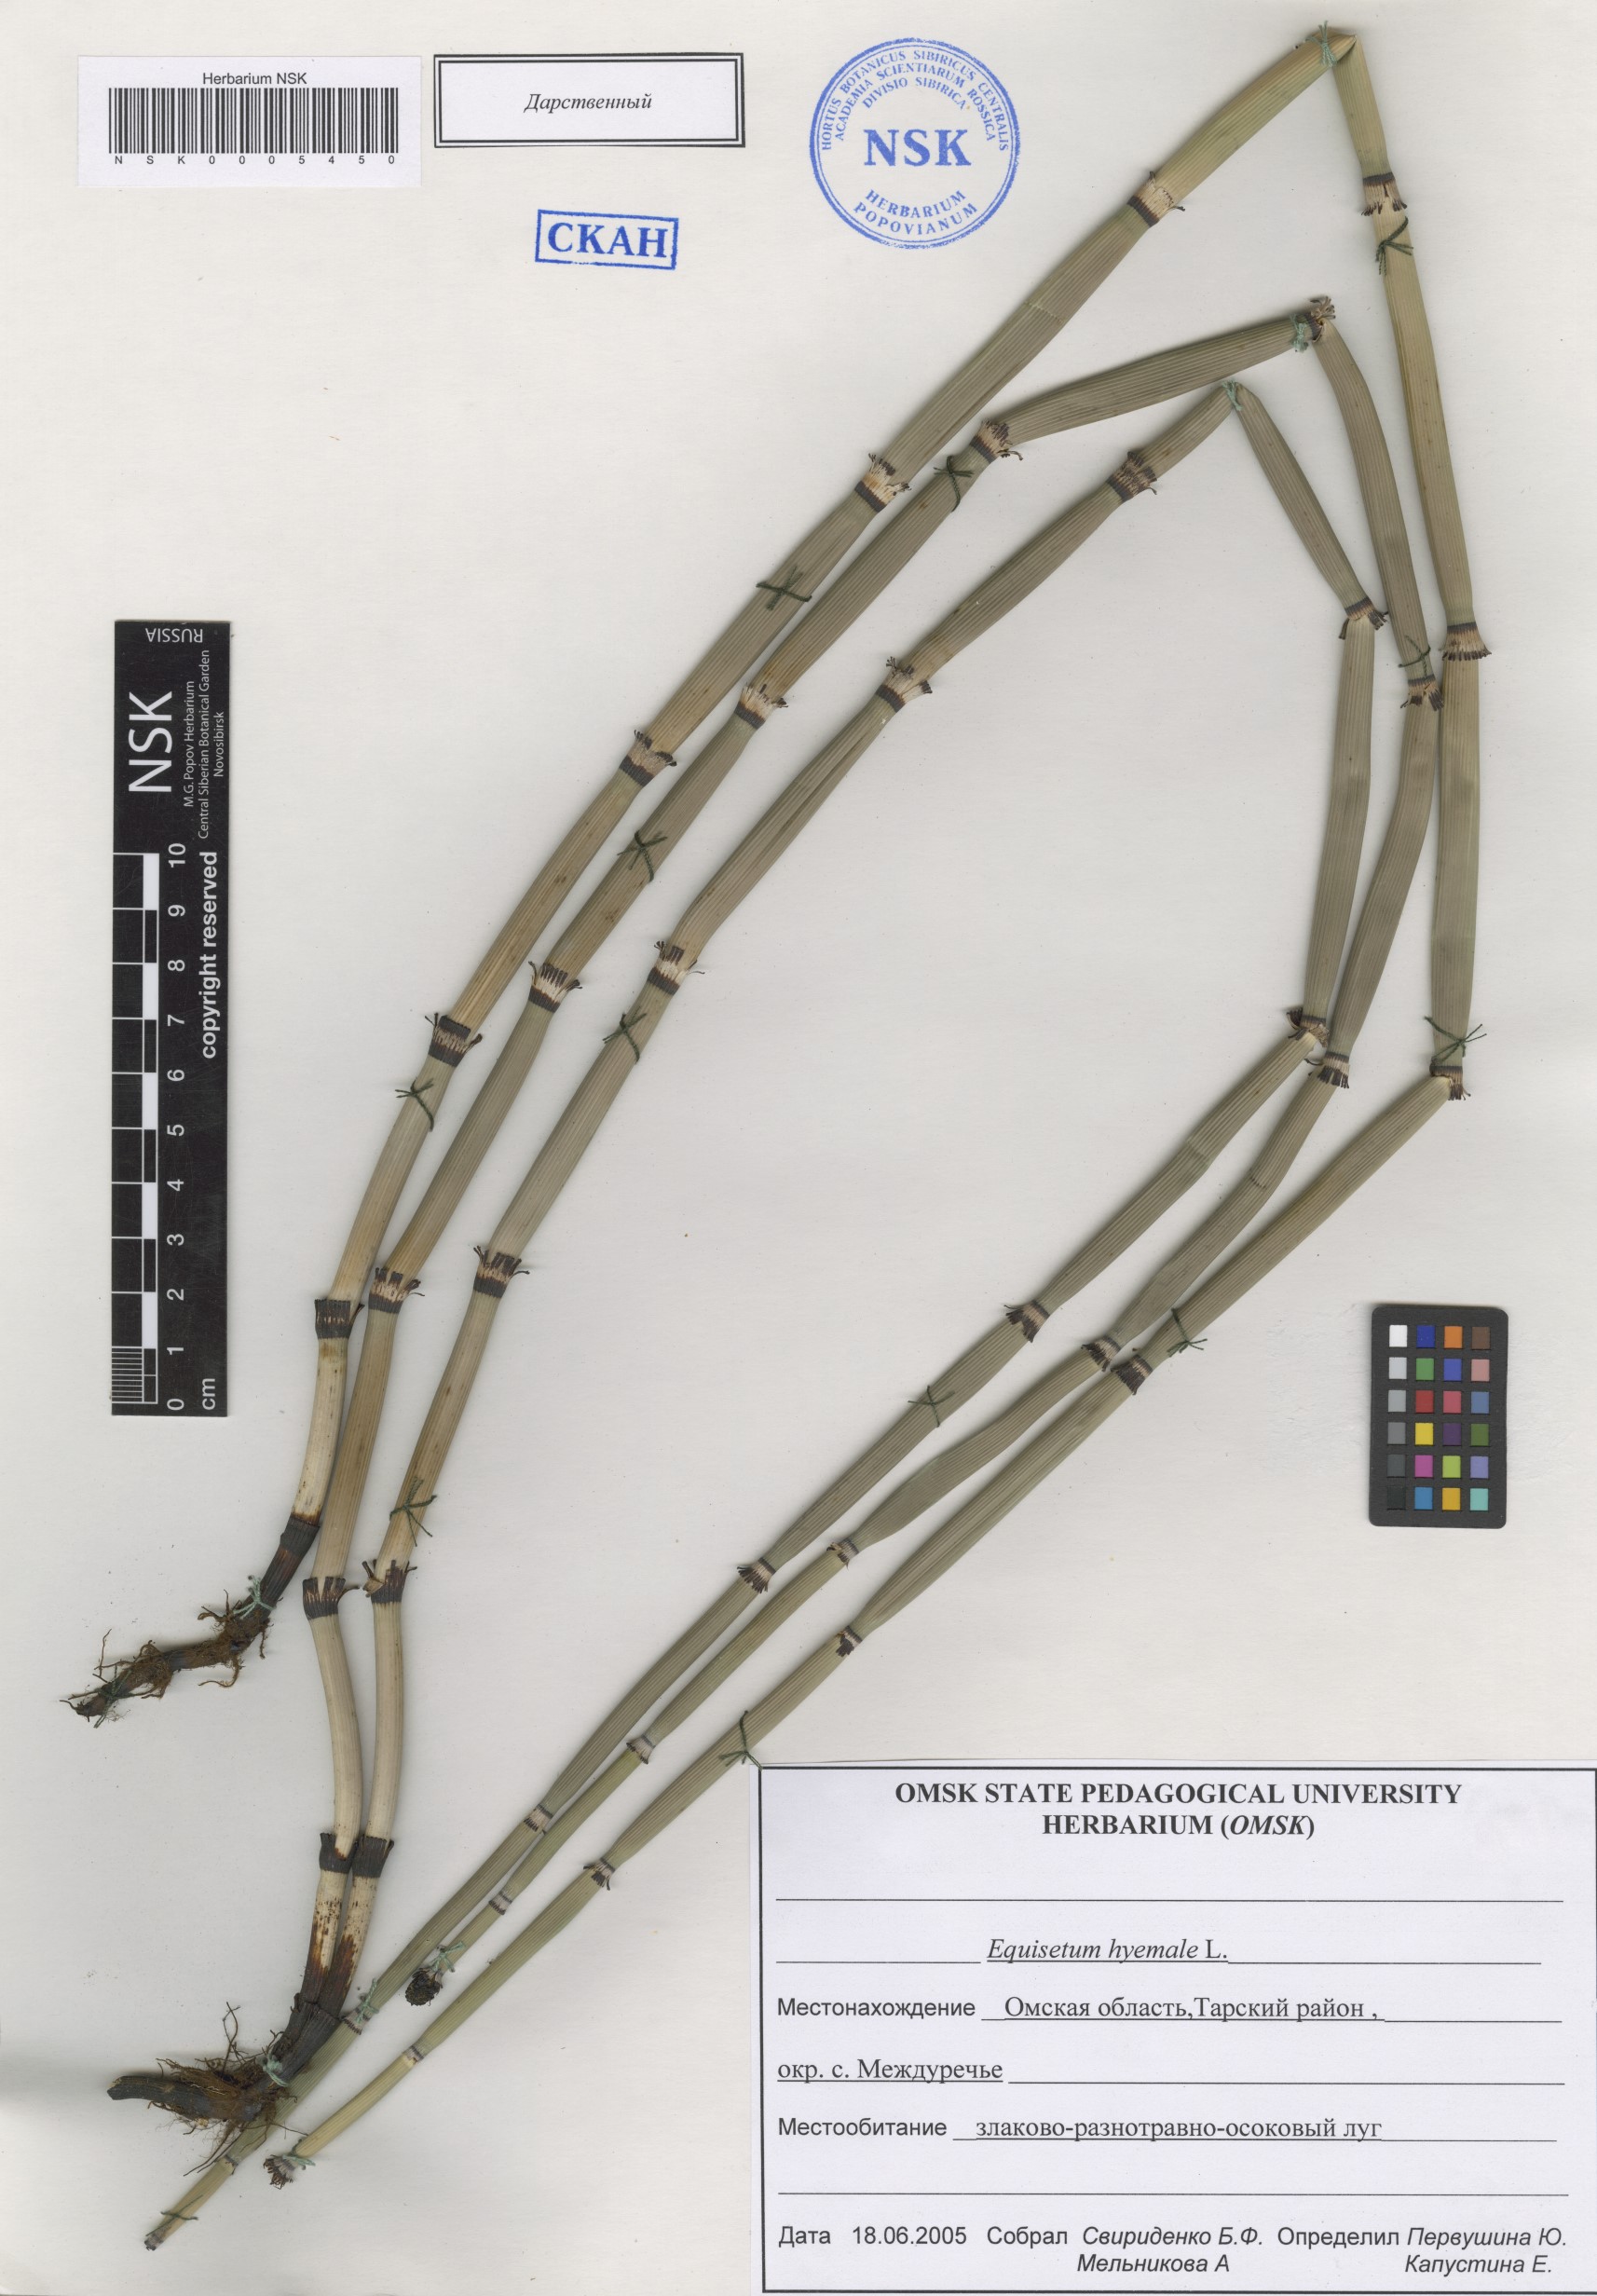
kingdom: Plantae
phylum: Tracheophyta
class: Polypodiopsida
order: Equisetales
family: Equisetaceae
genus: Equisetum
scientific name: Equisetum hyemale
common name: Rough horsetail
